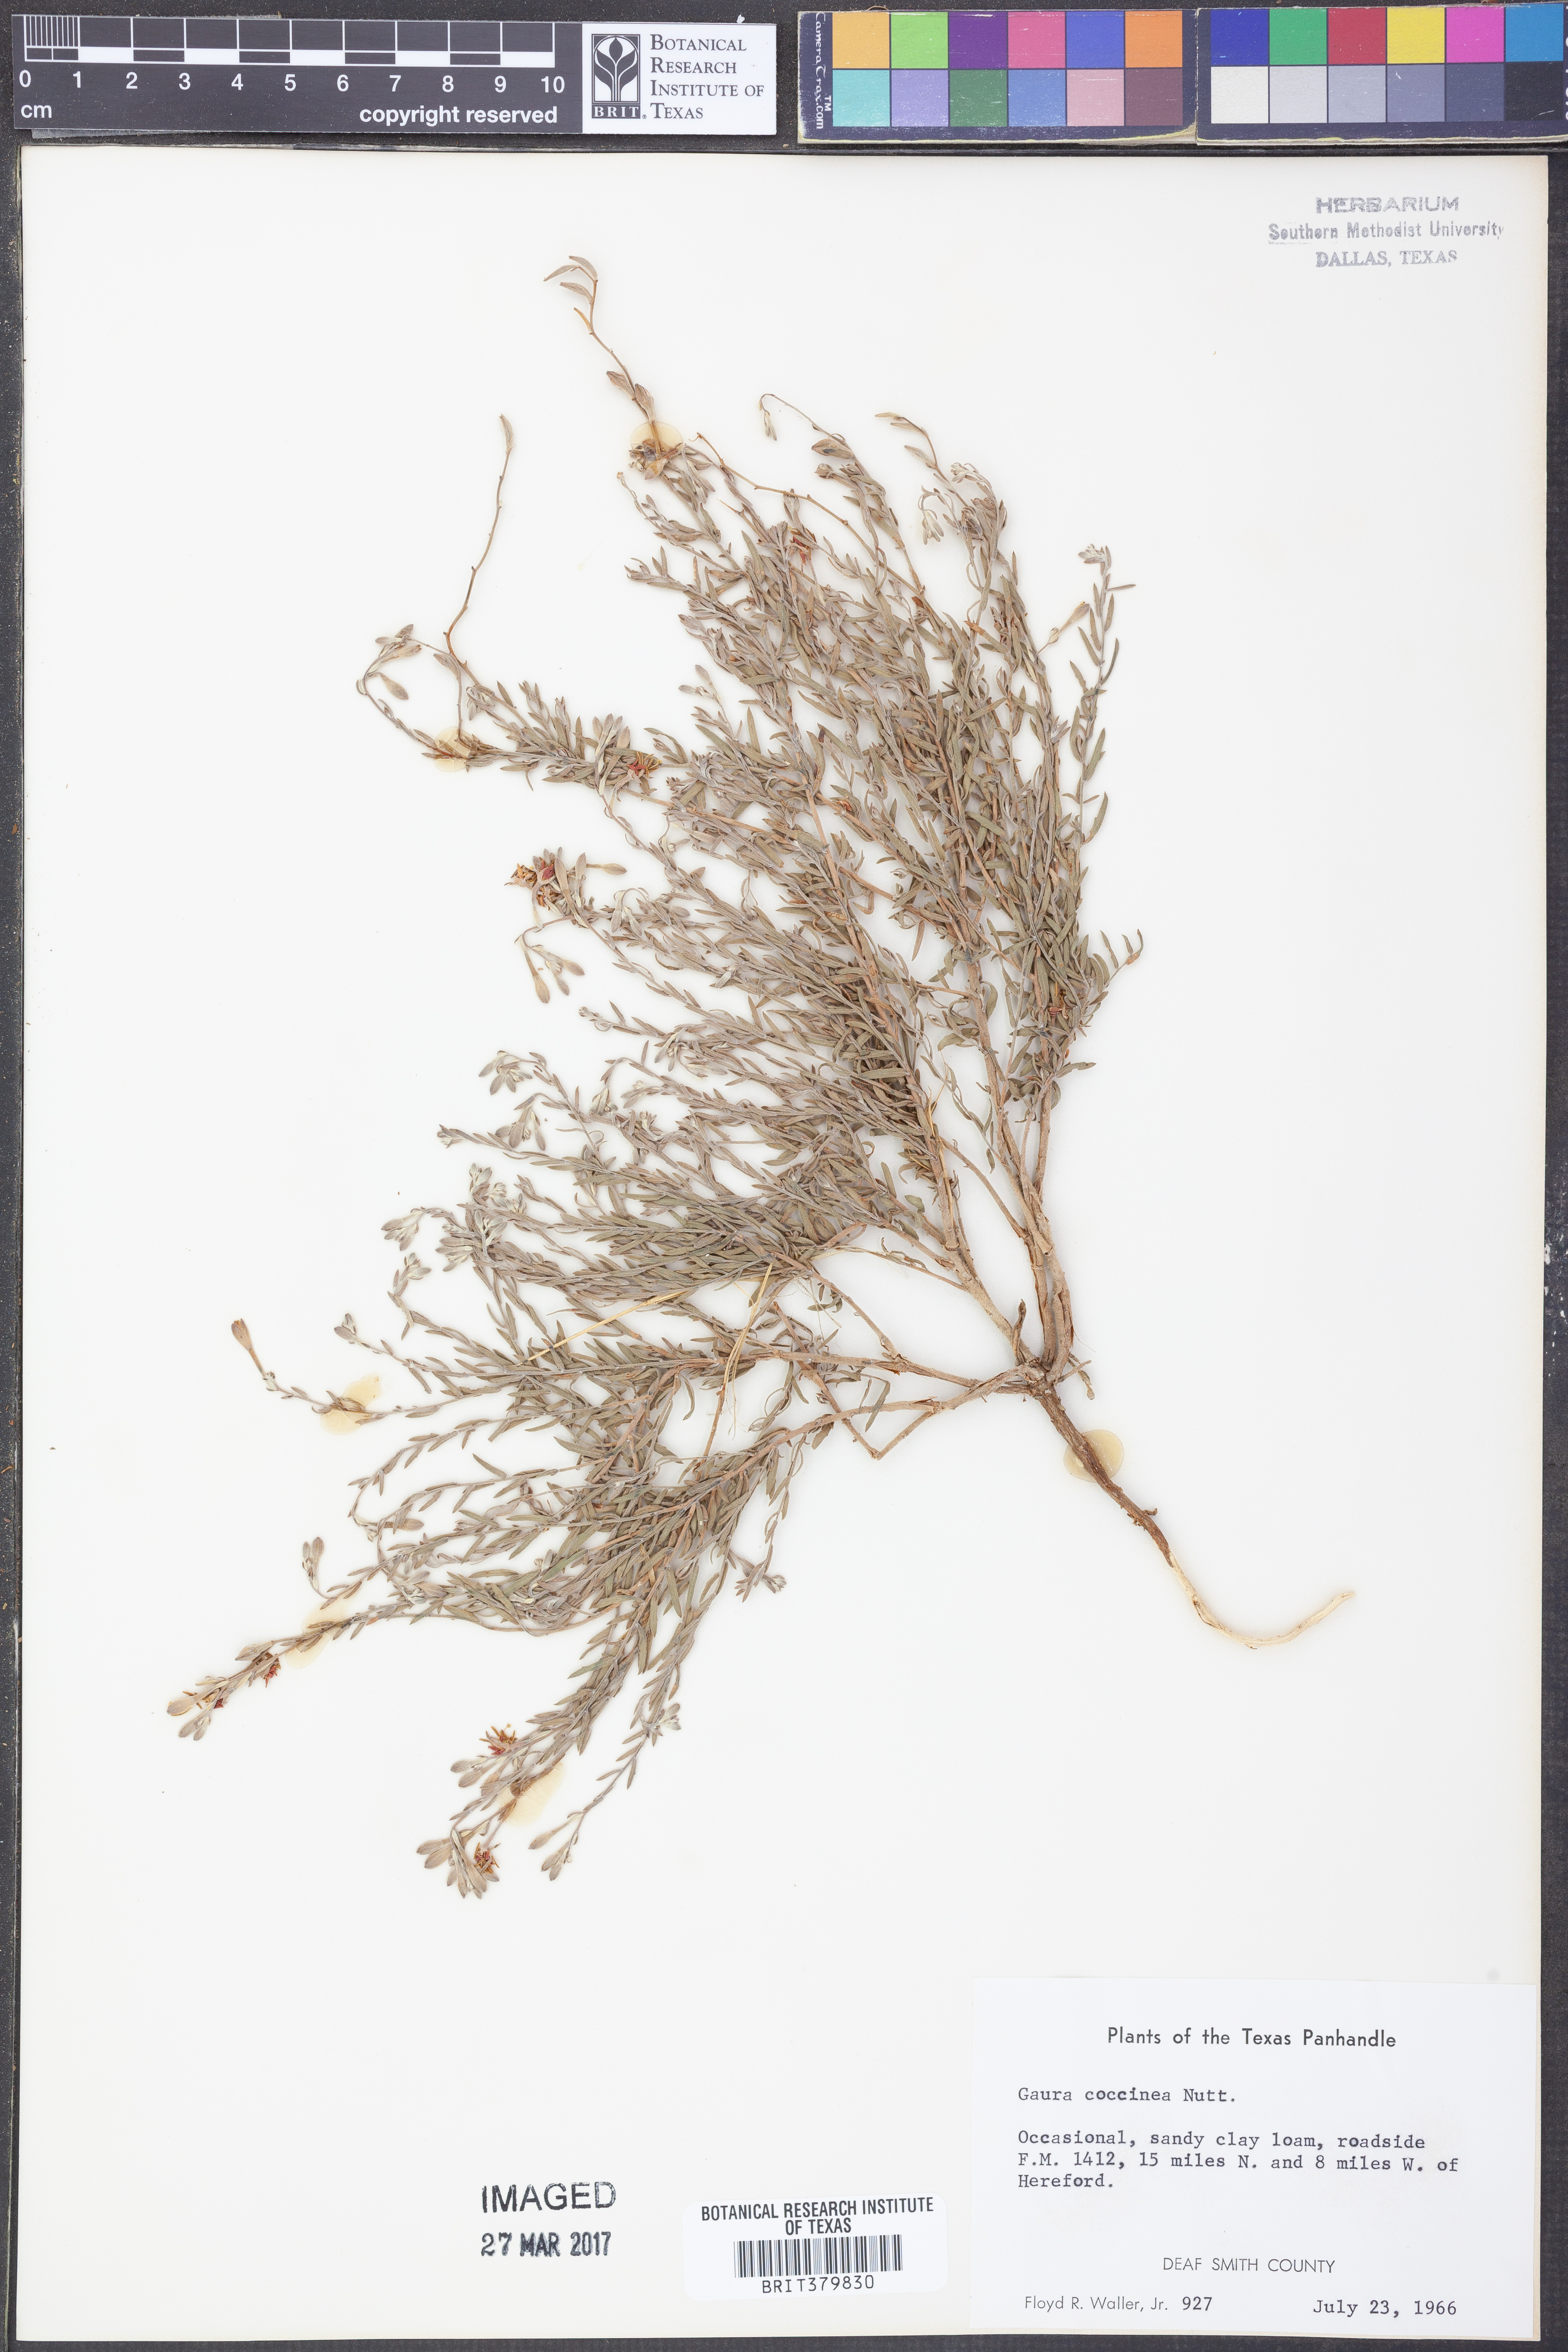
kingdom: Plantae
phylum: Tracheophyta
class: Magnoliopsida
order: Myrtales
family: Onagraceae
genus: Oenothera
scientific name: Oenothera suffrutescens
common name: Scarlet beeblossom
